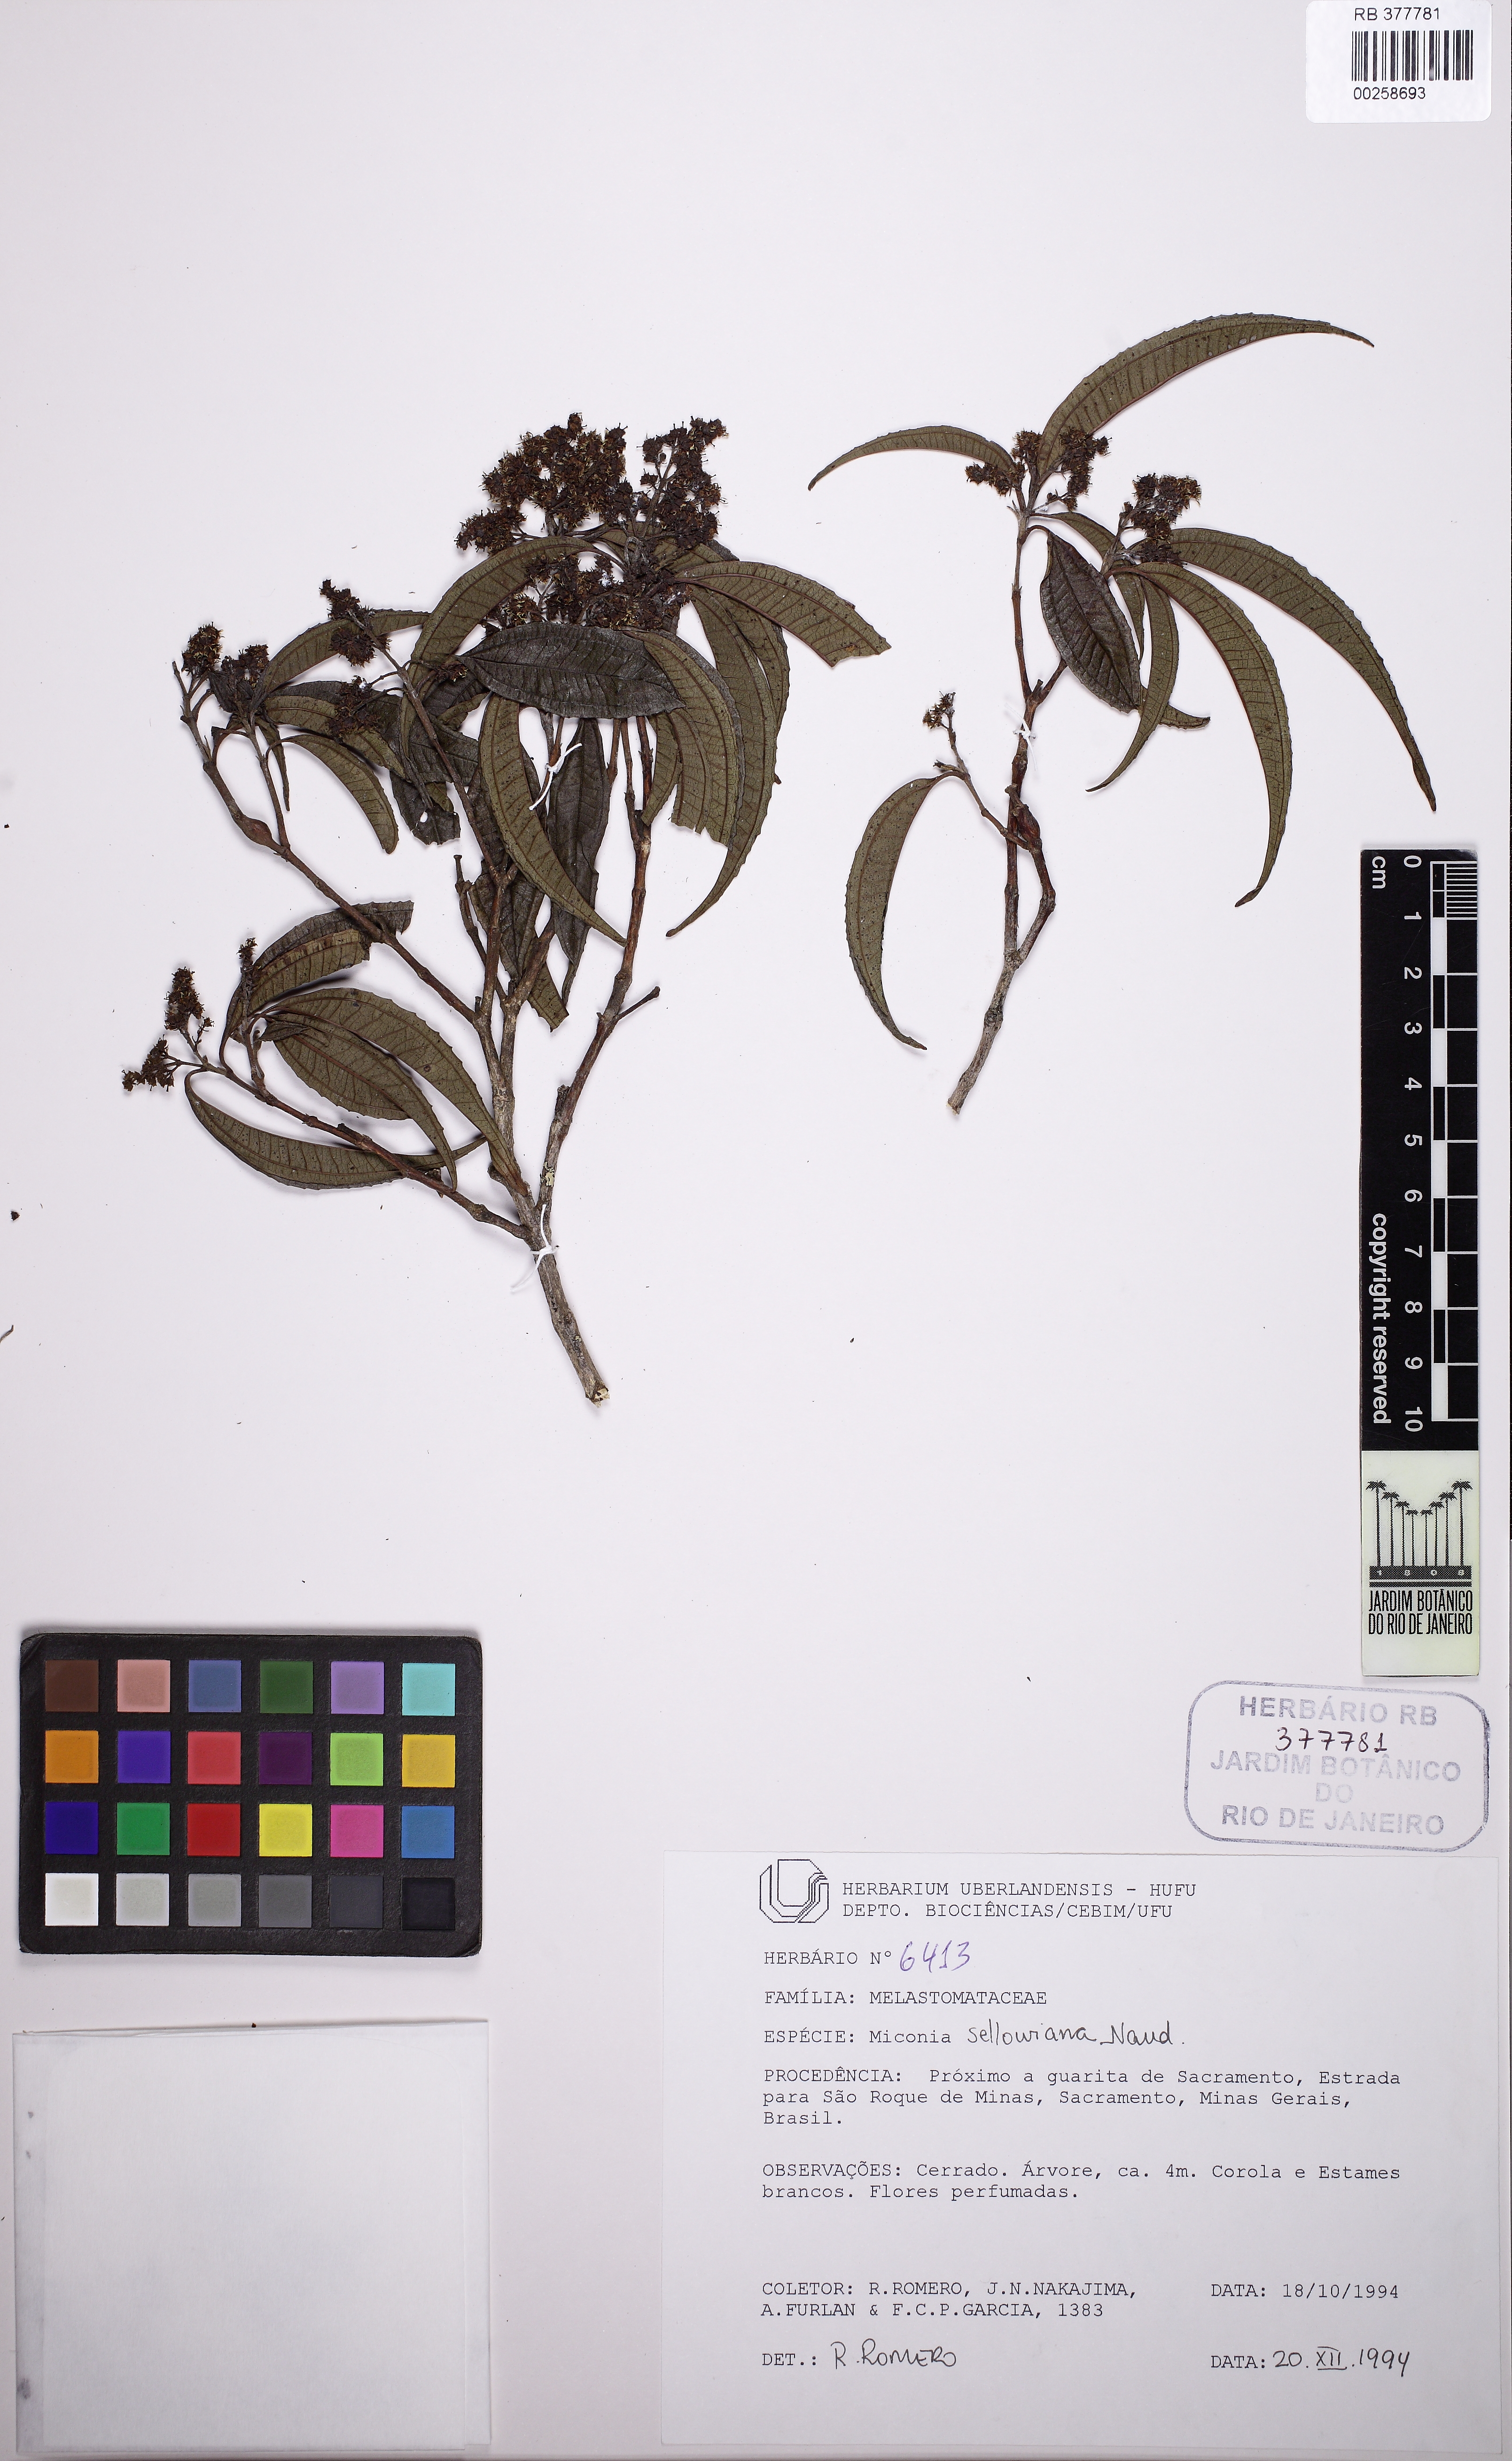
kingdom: Plantae
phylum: Tracheophyta
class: Magnoliopsida
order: Myrtales
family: Melastomataceae
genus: Miconia
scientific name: Miconia sellowiana
